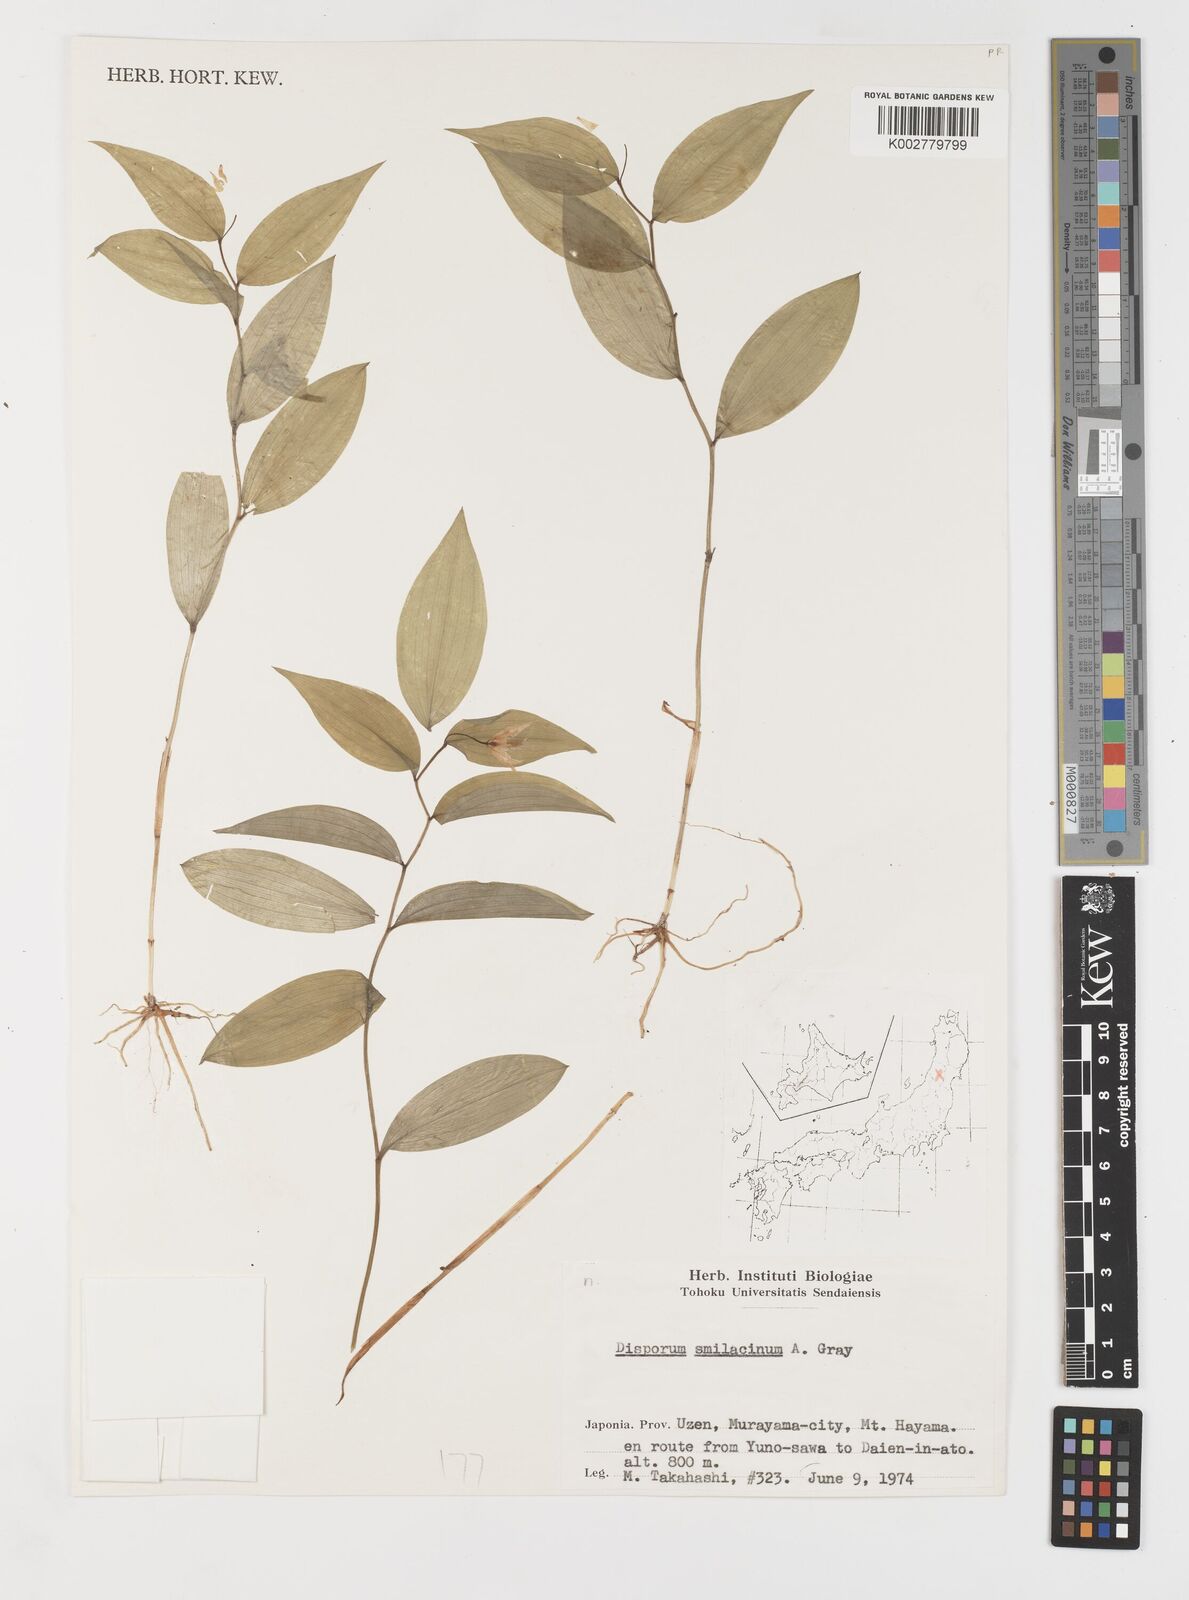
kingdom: Plantae
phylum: Tracheophyta
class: Liliopsida
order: Liliales
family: Colchicaceae
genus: Disporum
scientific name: Disporum smilacinum
